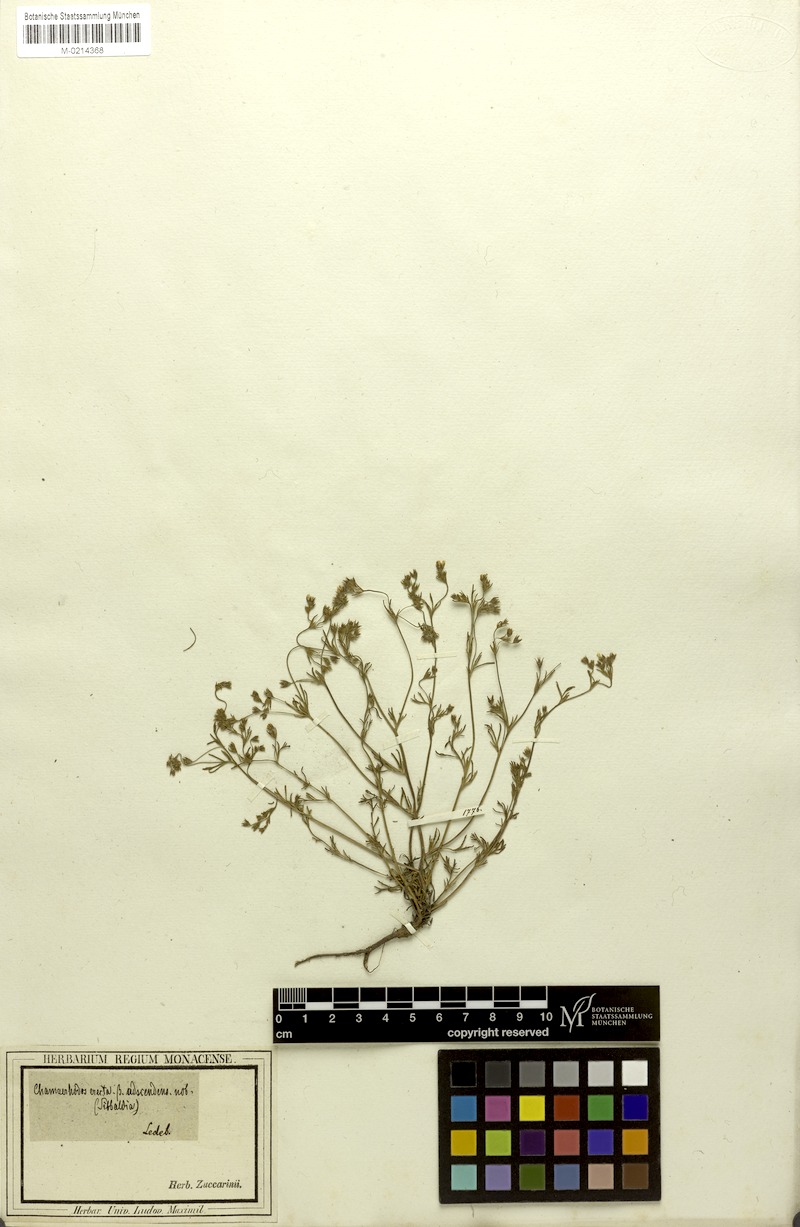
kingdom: Plantae
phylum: Tracheophyta
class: Magnoliopsida
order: Rosales
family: Rosaceae
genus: Chamaerhodos
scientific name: Chamaerhodos erecta
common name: American chamaerhodos
